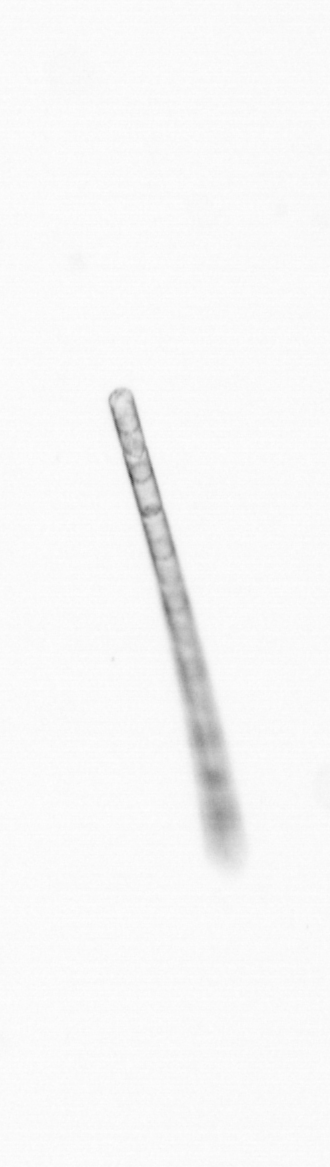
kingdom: Chromista
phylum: Ochrophyta
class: Bacillariophyceae
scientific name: Bacillariophyceae
